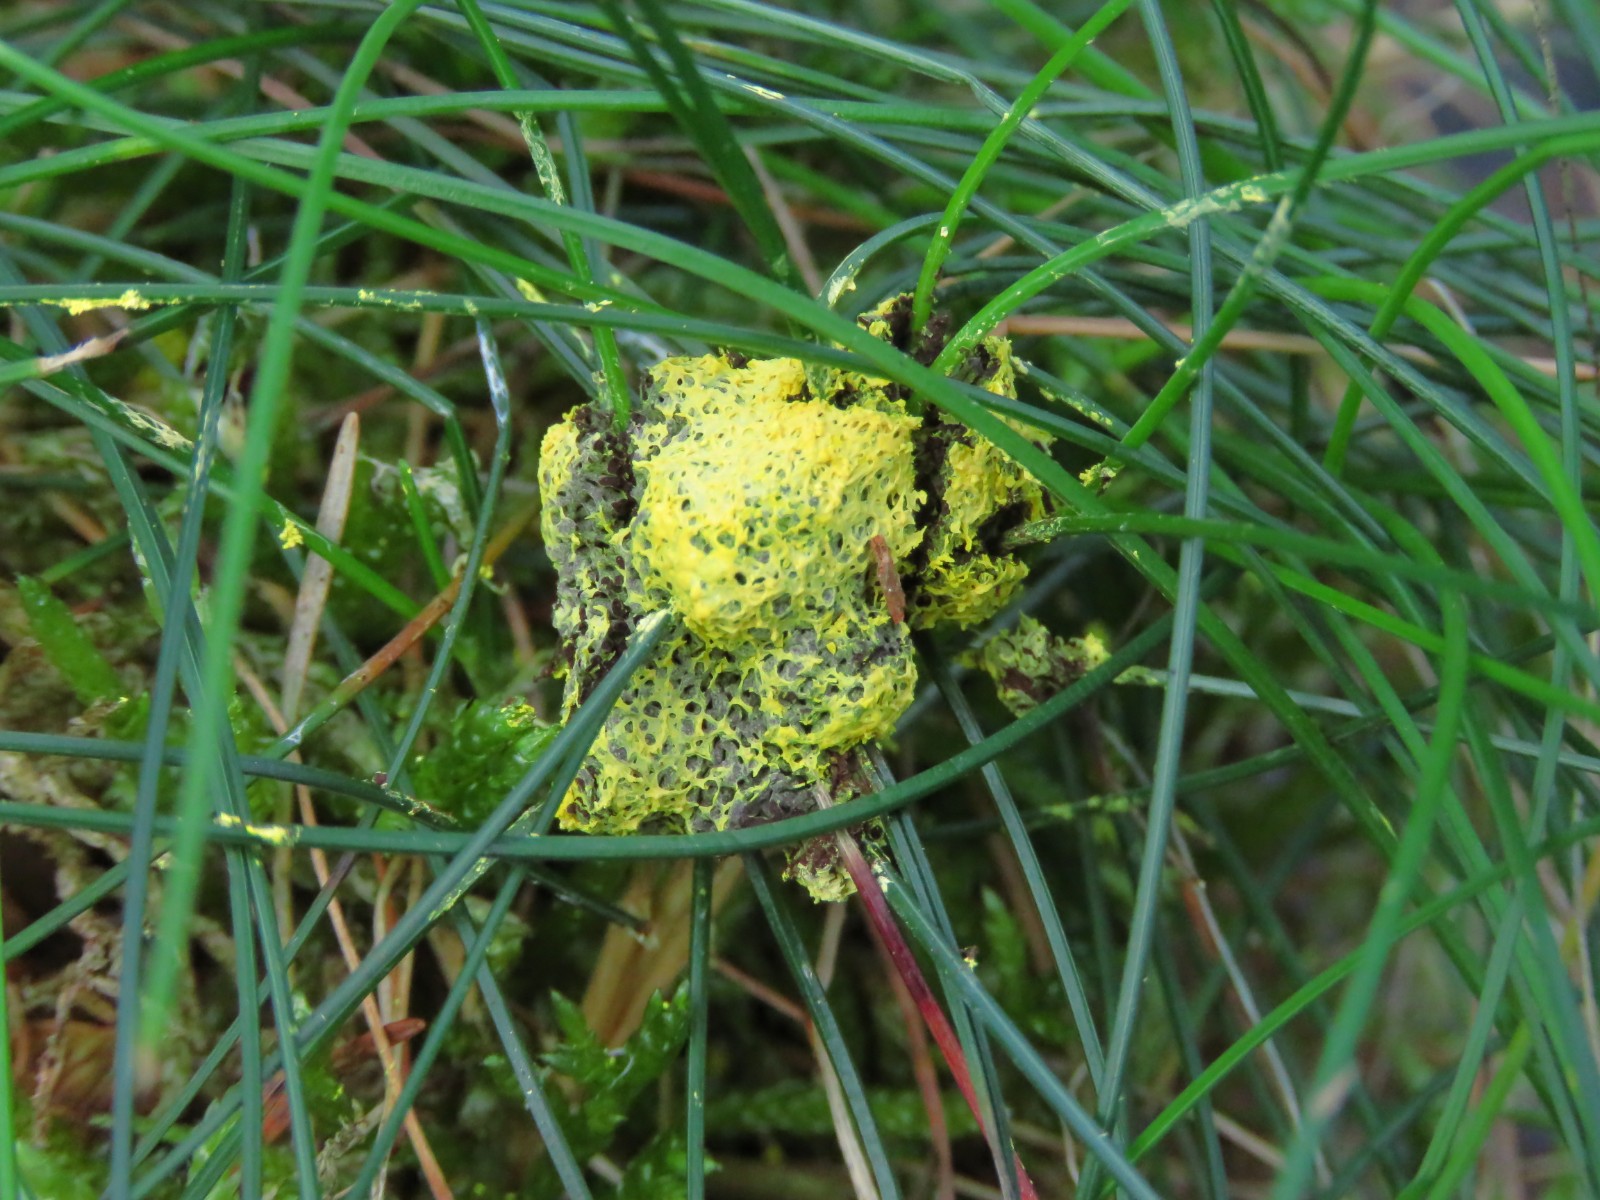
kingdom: Protozoa
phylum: Mycetozoa
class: Myxomycetes
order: Physarales
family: Physaraceae
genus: Fuligo
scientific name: Fuligo septica
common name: Dog vomit slime mold
